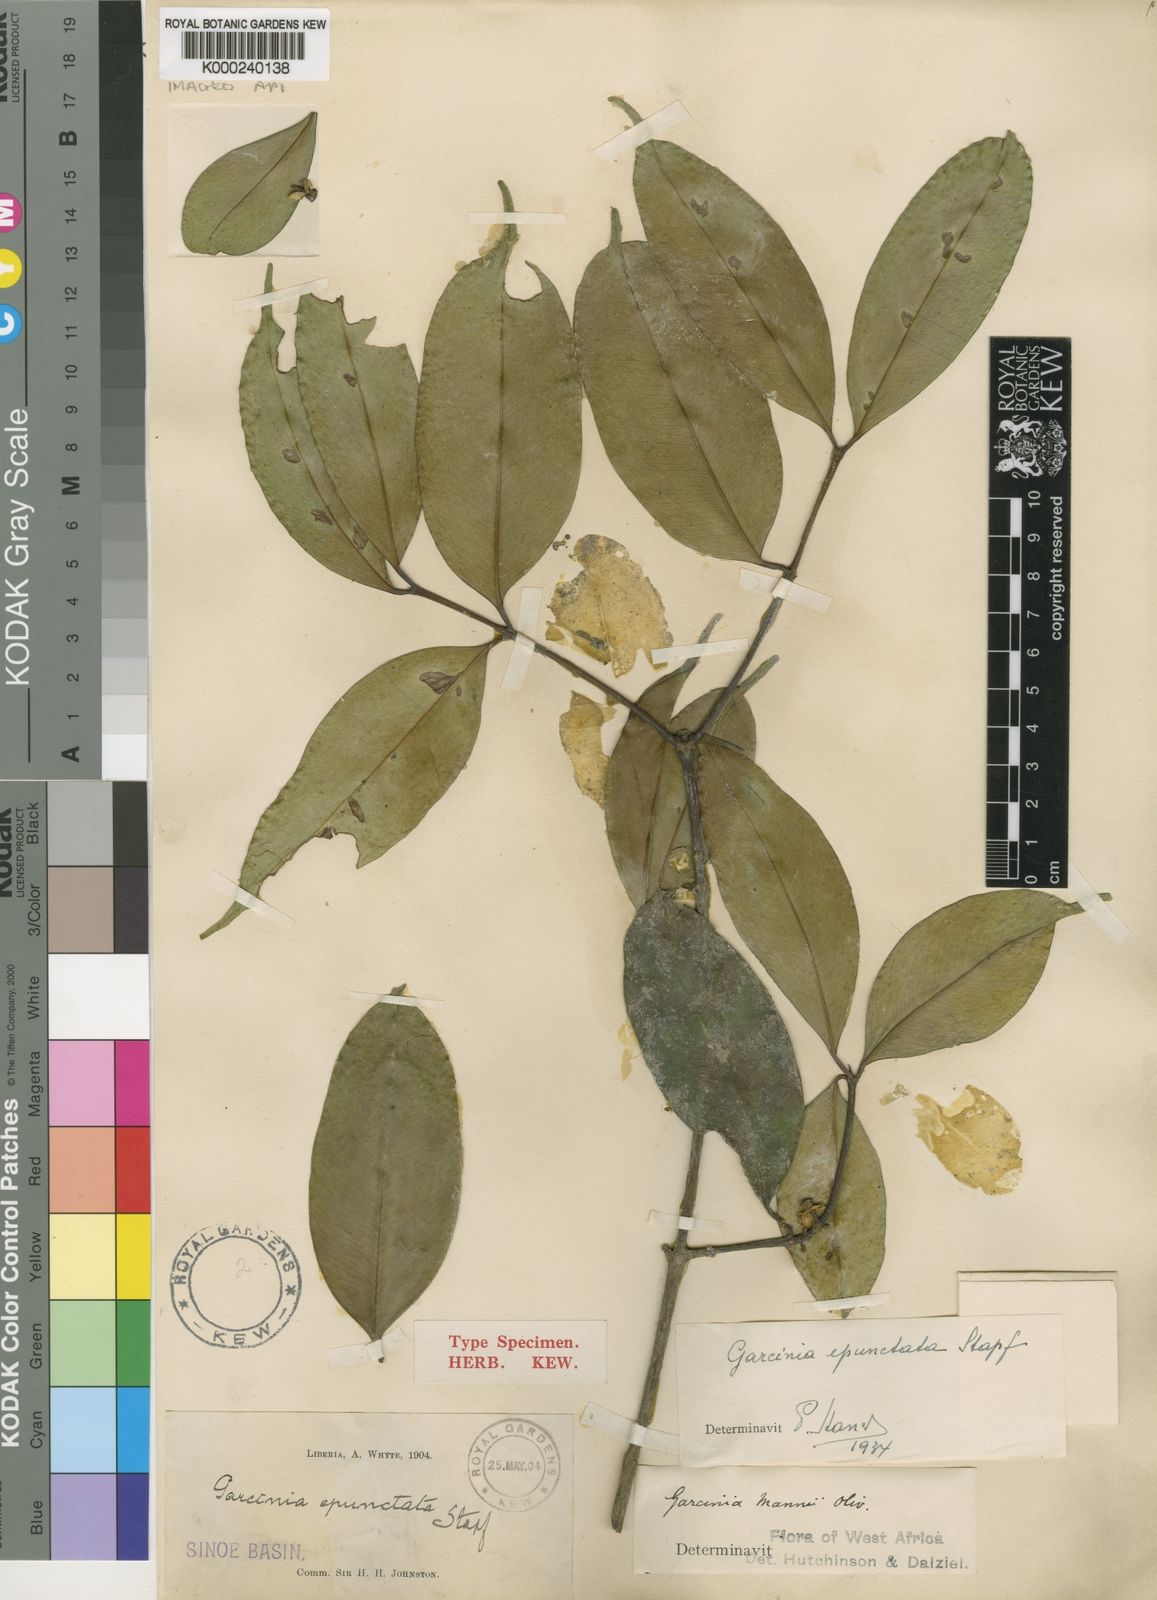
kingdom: Plantae
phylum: Tracheophyta
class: Magnoliopsida
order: Malpighiales
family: Clusiaceae
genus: Garcinia
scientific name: Garcinia epunctata
